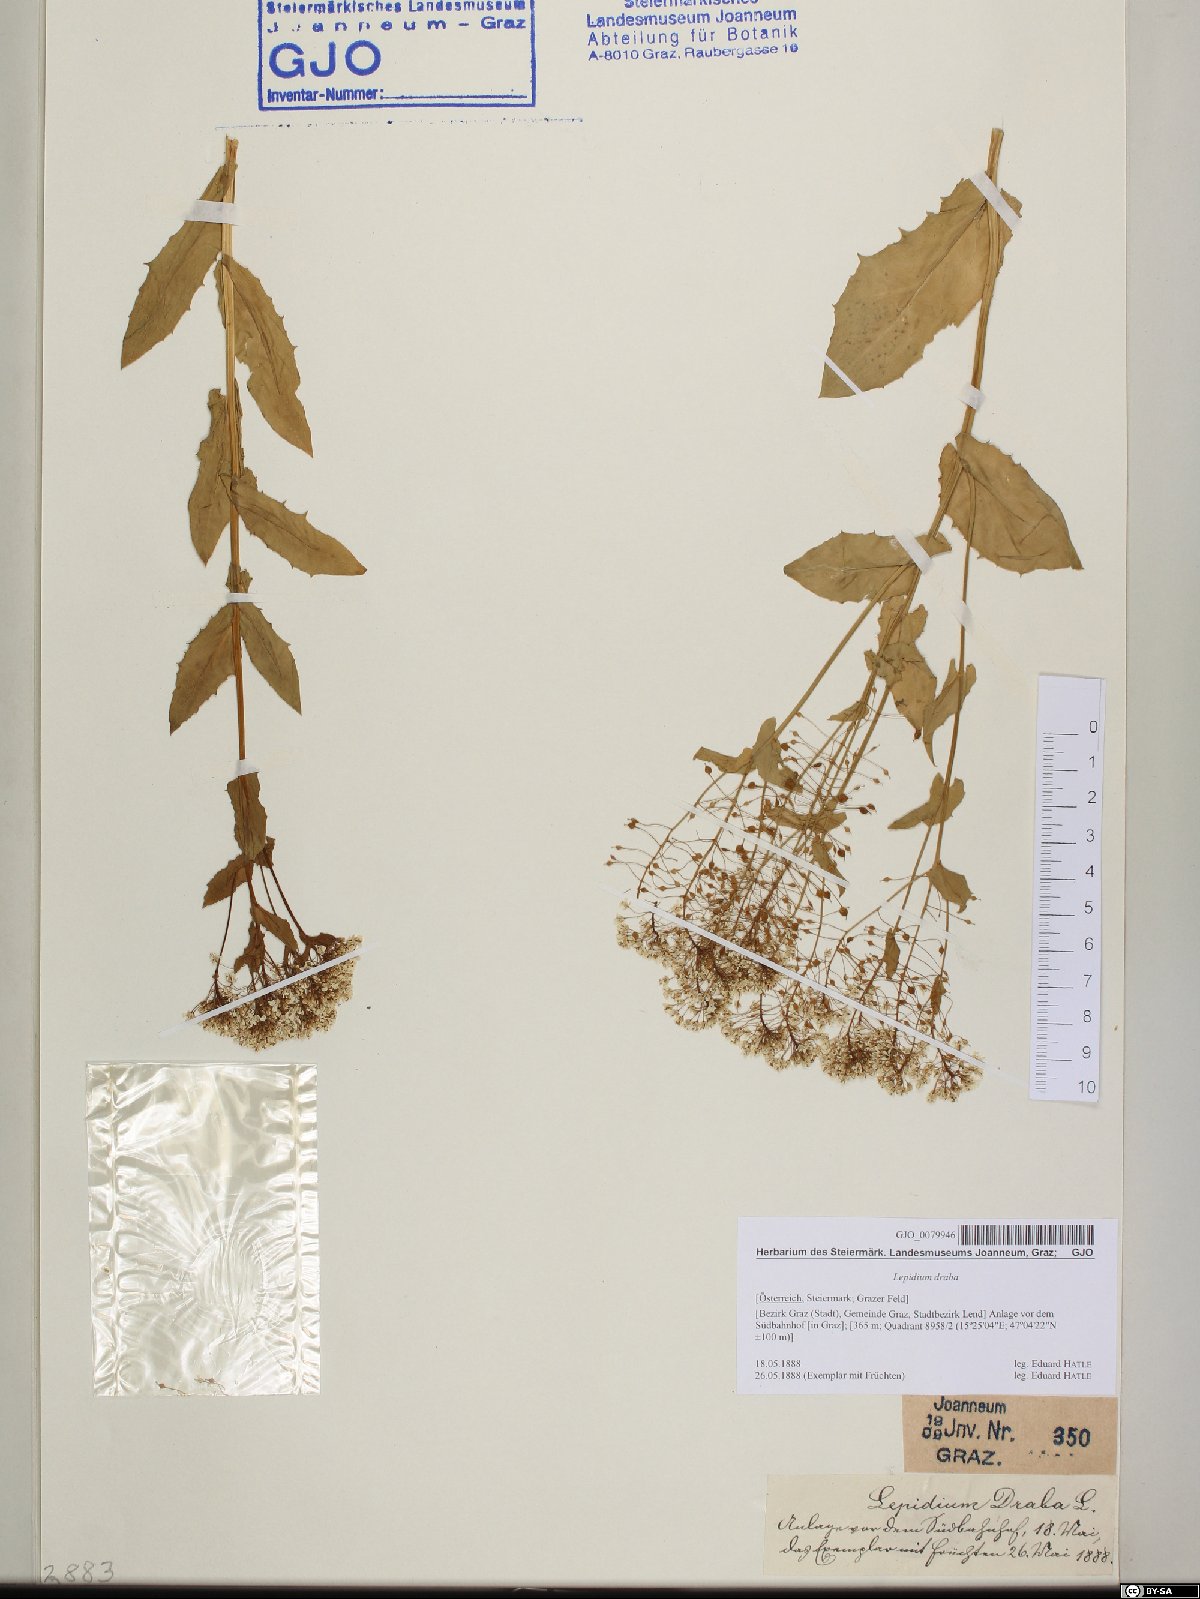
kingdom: Plantae
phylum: Tracheophyta
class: Magnoliopsida
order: Brassicales
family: Brassicaceae
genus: Lepidium
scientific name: Lepidium draba
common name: Hoary cress
